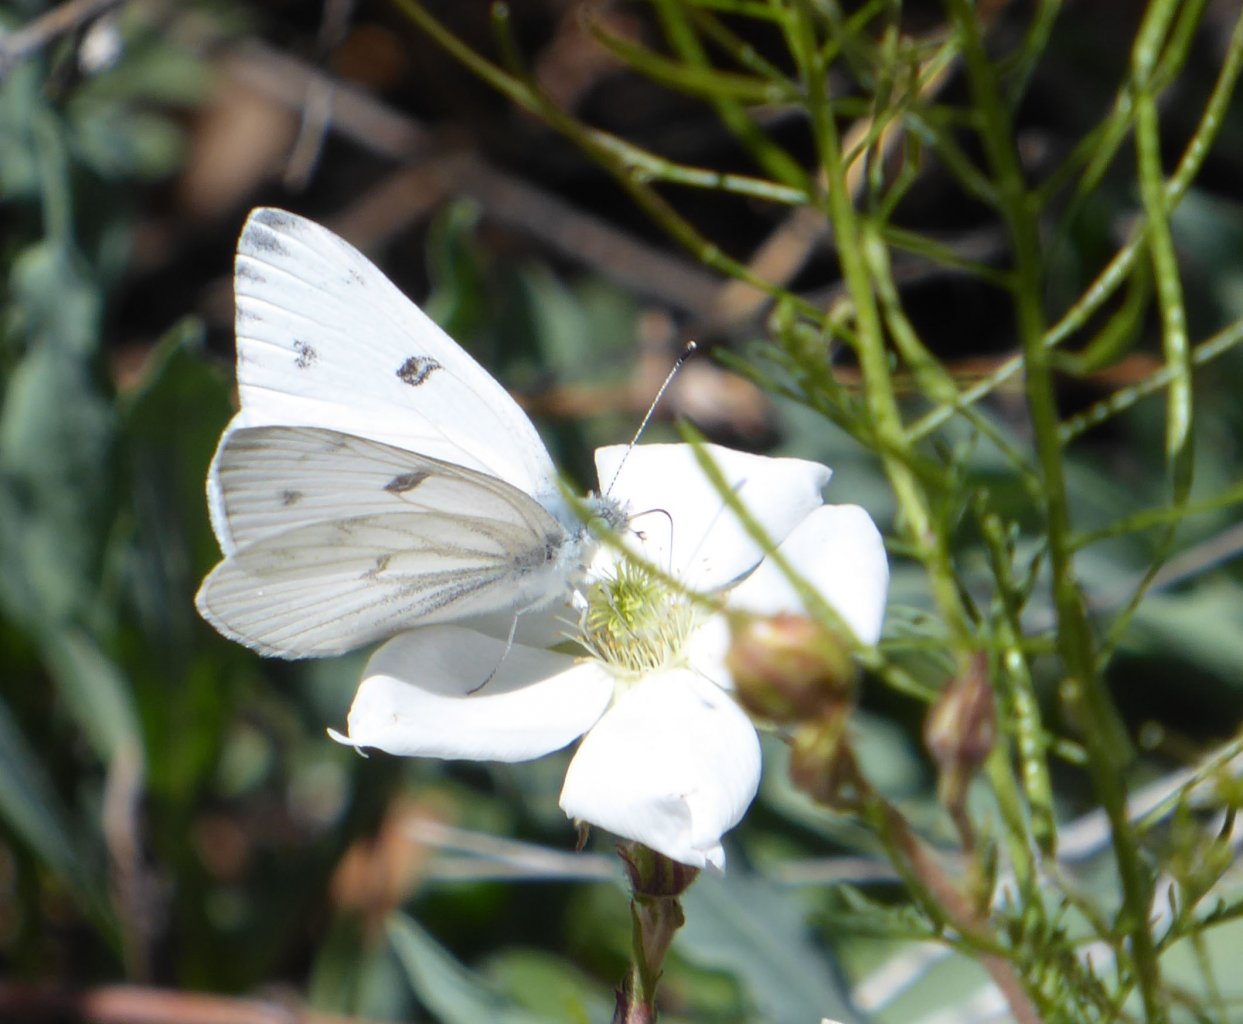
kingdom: Animalia
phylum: Arthropoda
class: Insecta
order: Lepidoptera
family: Pieridae
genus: Pontia
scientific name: Pontia protodice
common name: Checkered White
